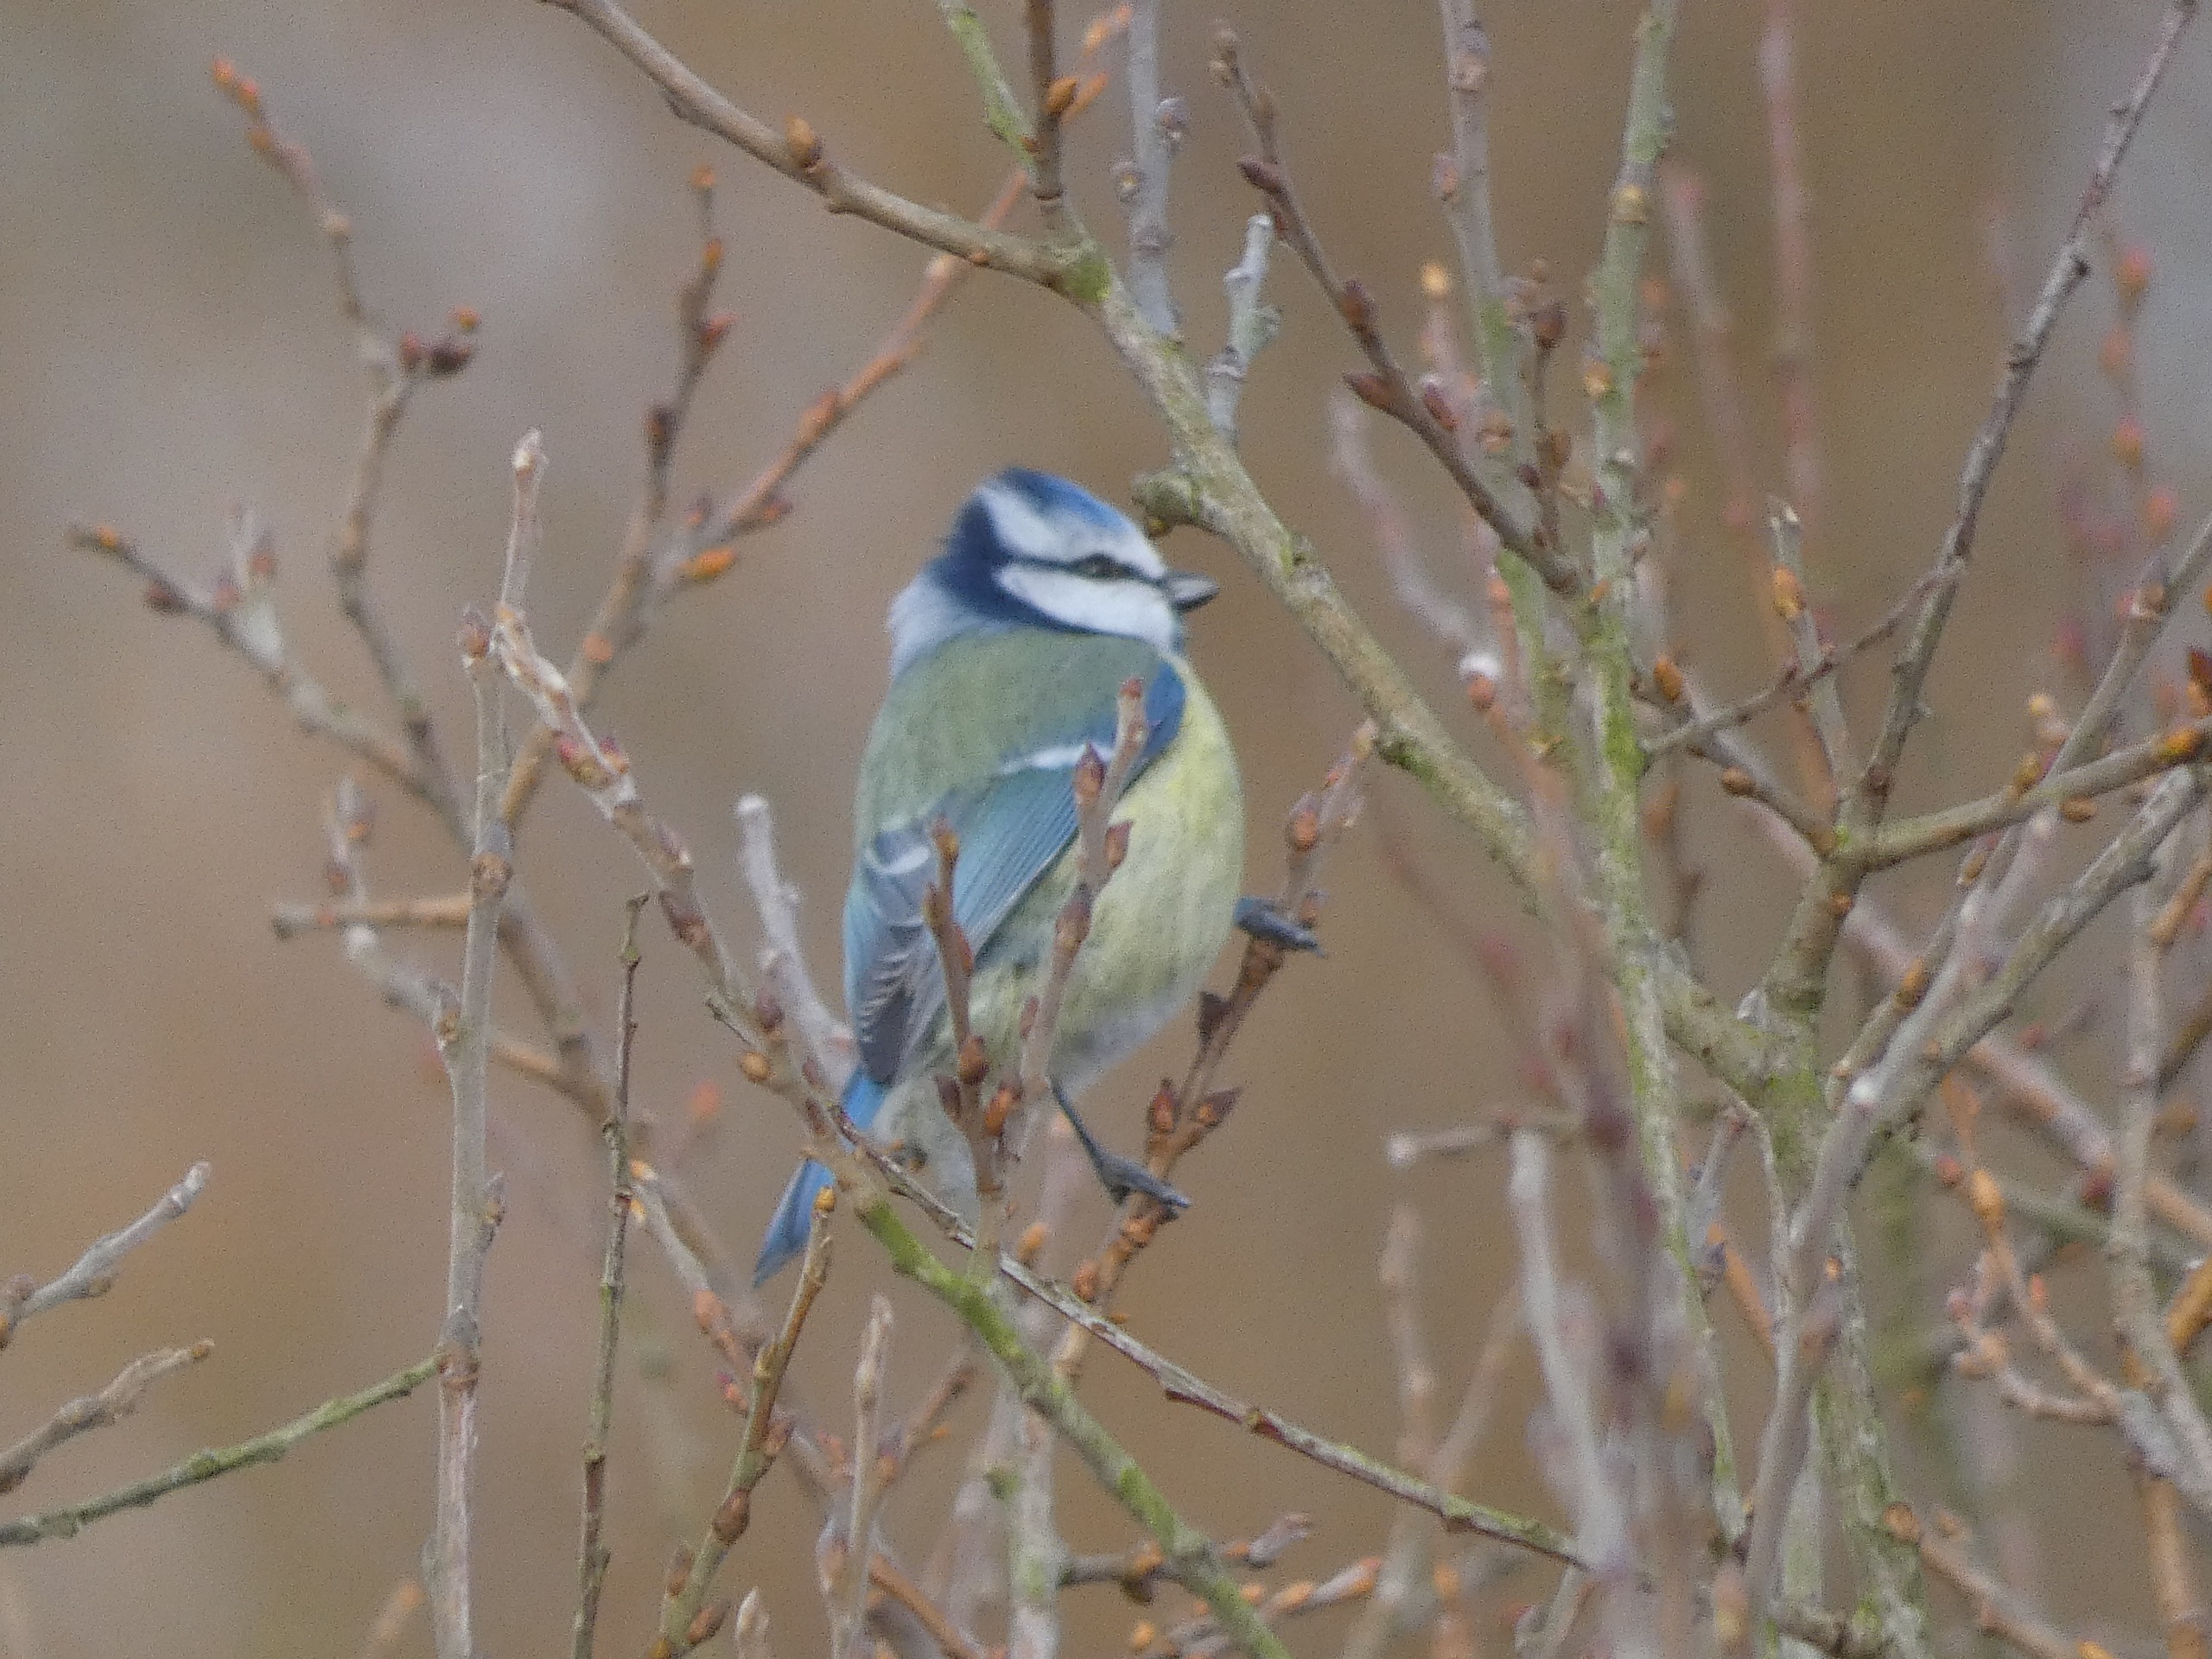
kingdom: Animalia
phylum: Chordata
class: Aves
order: Passeriformes
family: Paridae
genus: Cyanistes
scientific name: Cyanistes caeruleus
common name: Blåmejse
